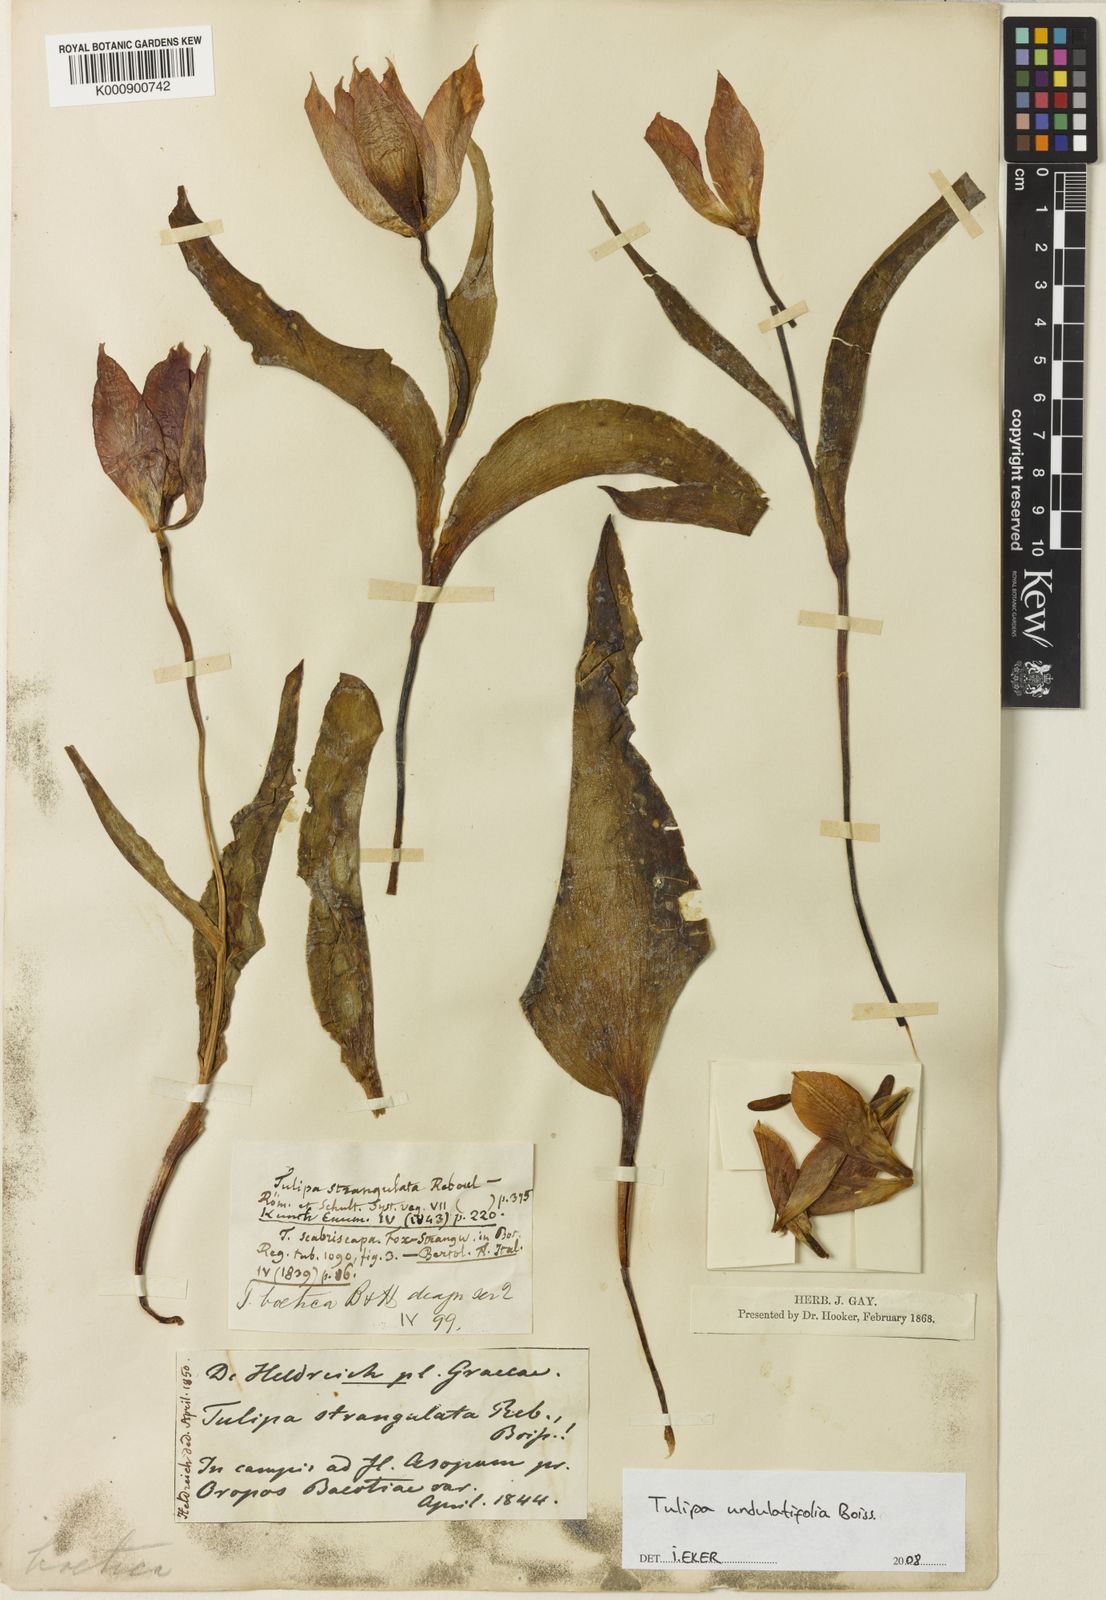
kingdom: Plantae
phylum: Tracheophyta
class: Liliopsida
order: Liliales
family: Liliaceae
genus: Tulipa
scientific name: Tulipa undulatifolia
